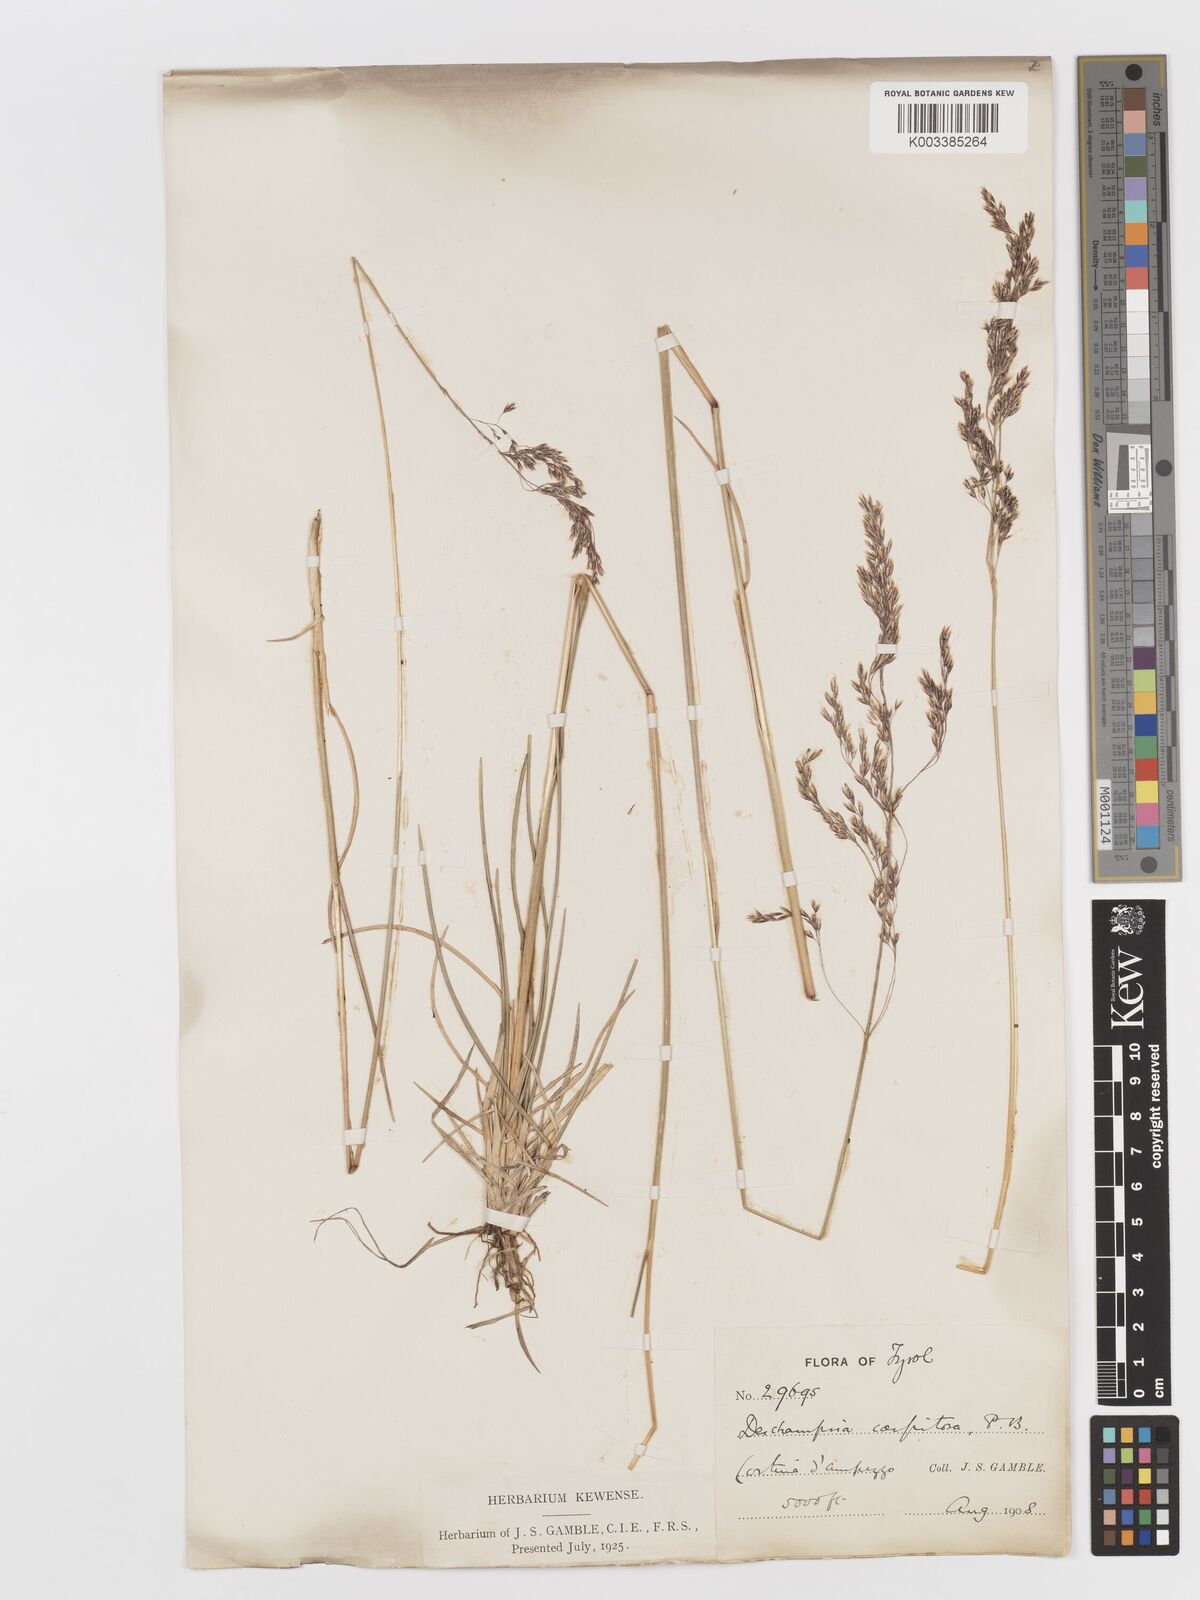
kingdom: Plantae
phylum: Tracheophyta
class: Liliopsida
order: Poales
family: Poaceae
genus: Deschampsia
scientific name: Deschampsia cespitosa
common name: Tufted hair-grass
